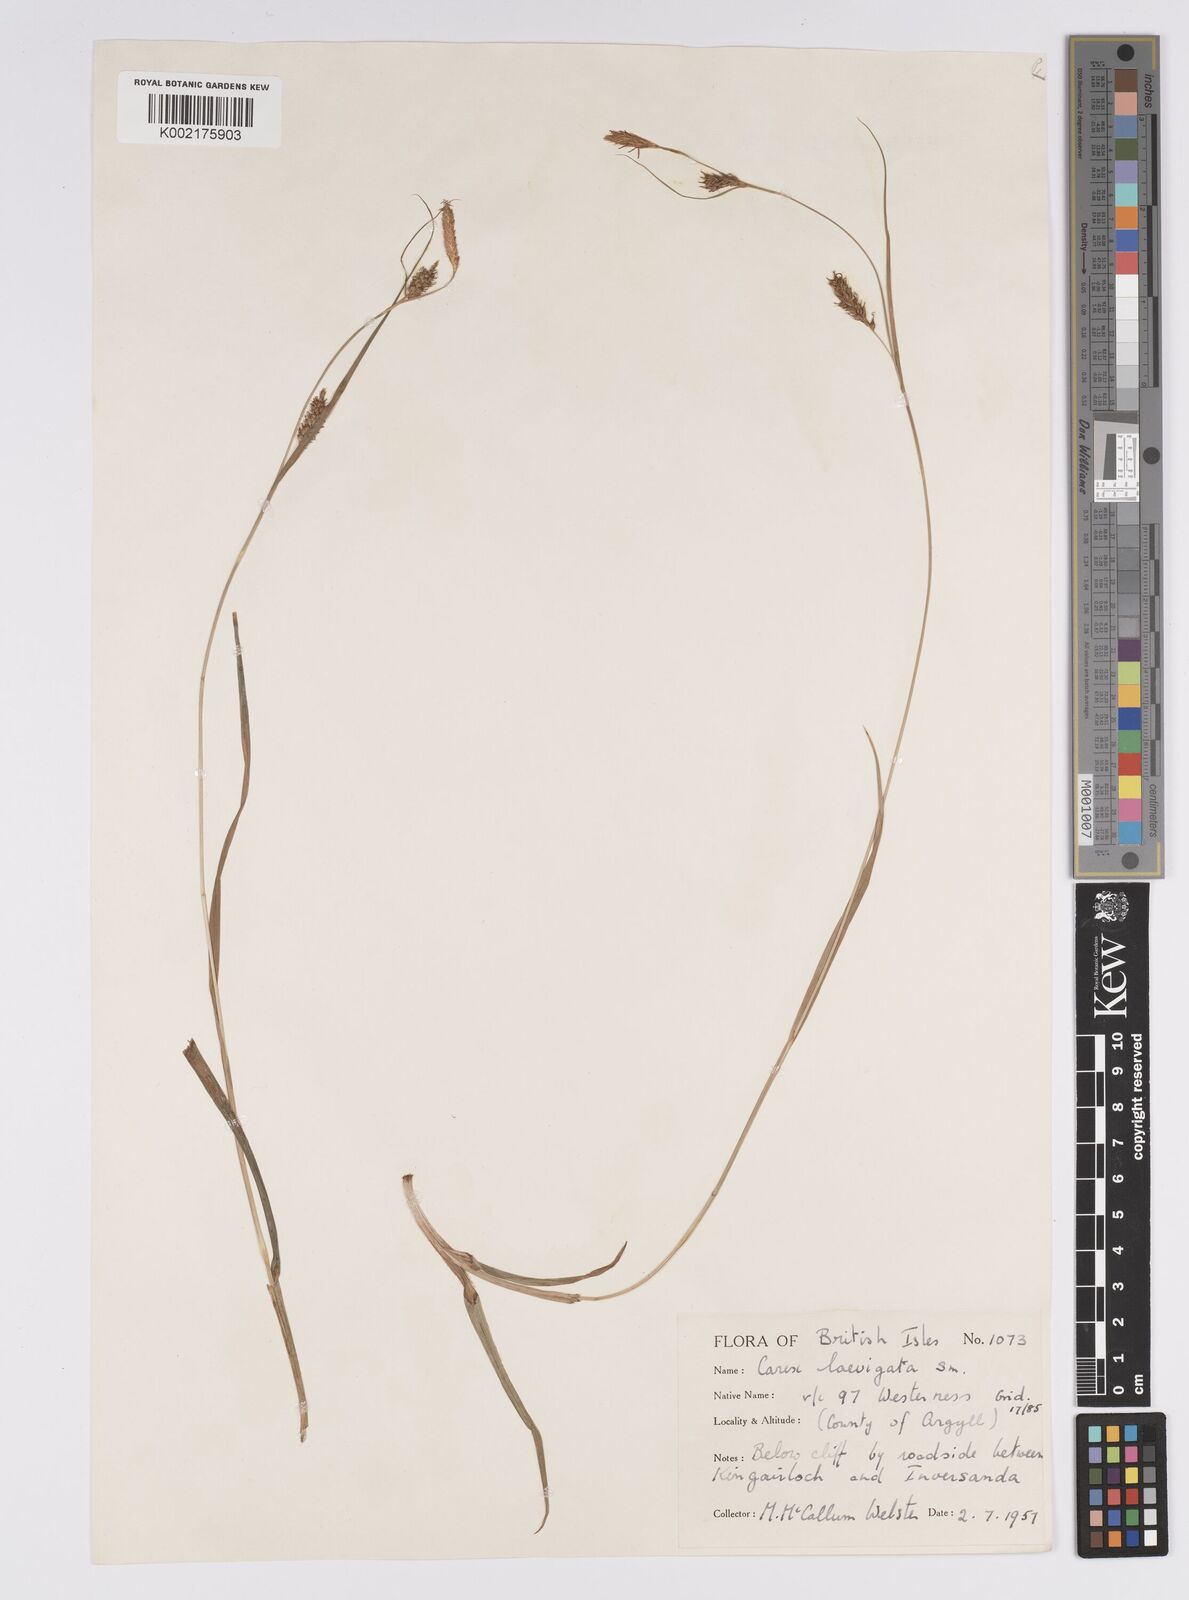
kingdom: Plantae
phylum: Tracheophyta
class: Liliopsida
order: Poales
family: Cyperaceae
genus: Carex
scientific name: Carex laevigata
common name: Smooth-stalked sedge
